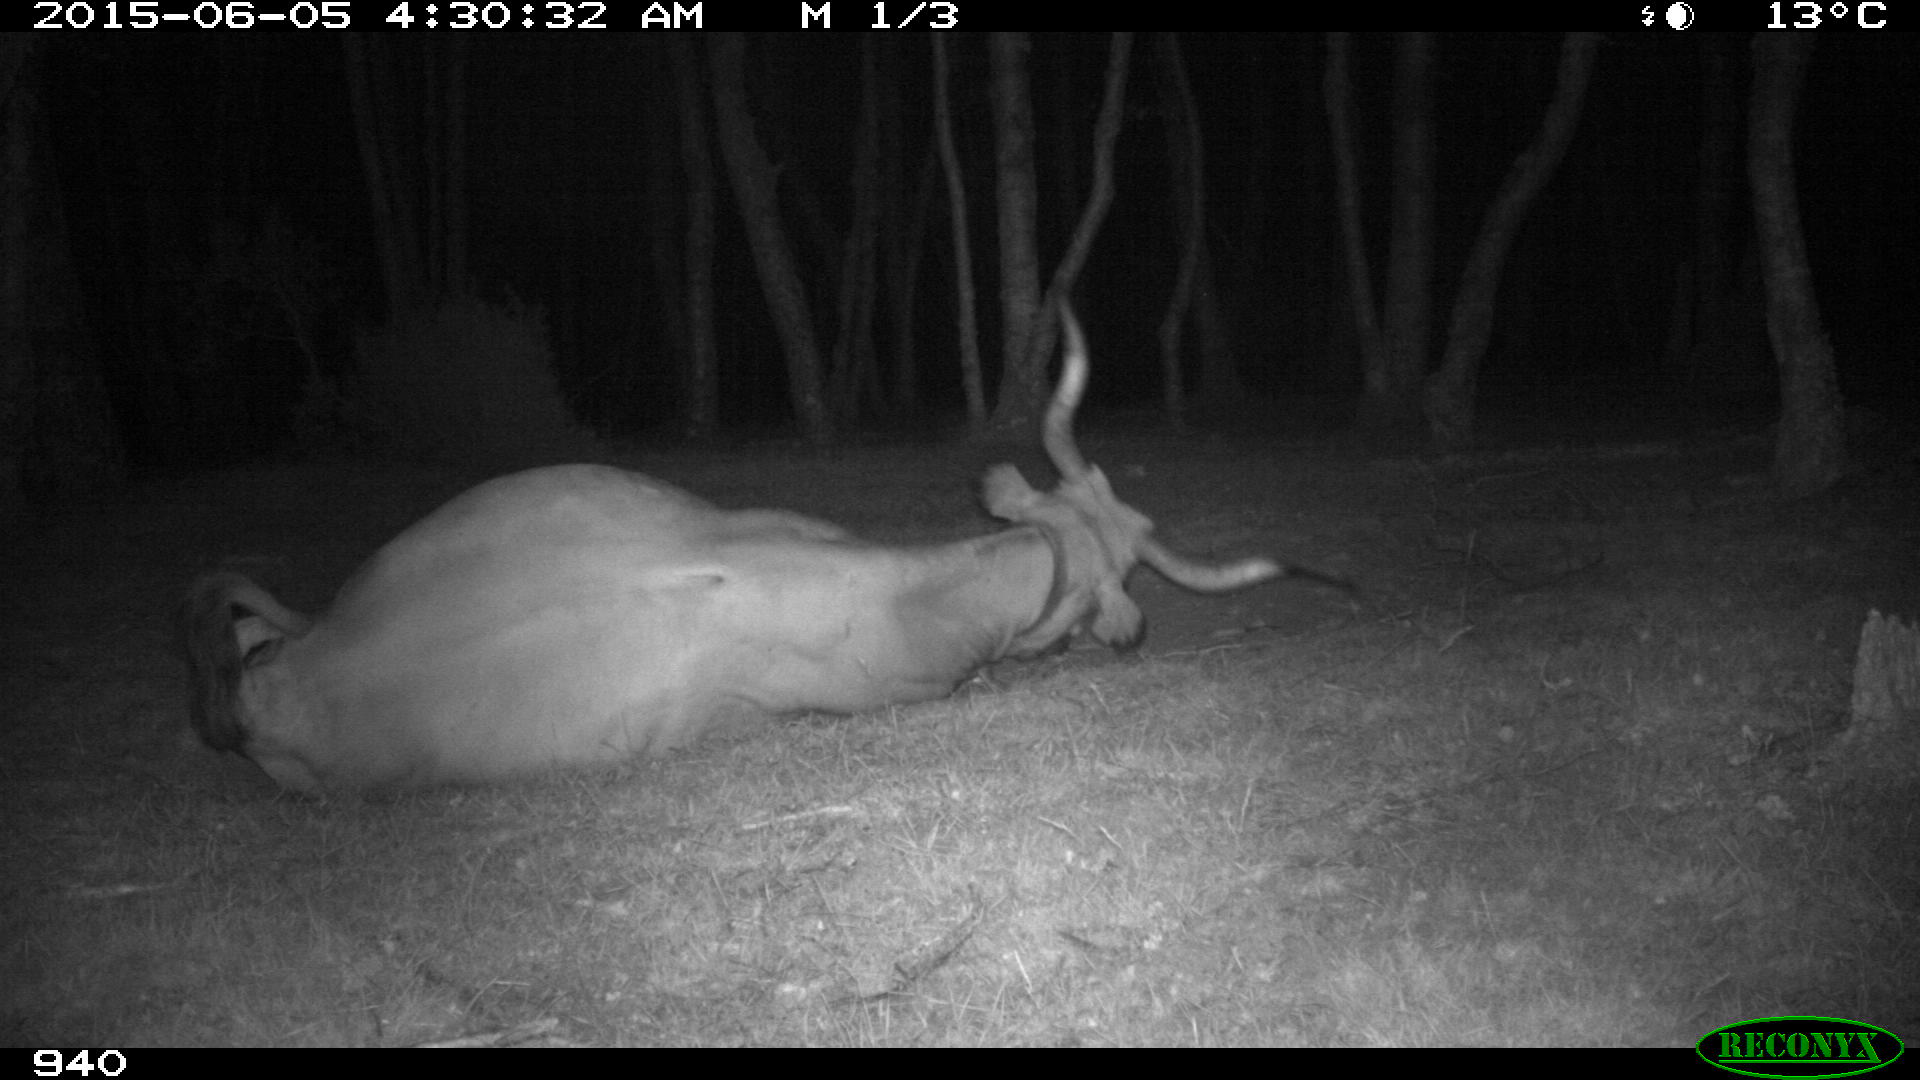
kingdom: Animalia
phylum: Chordata
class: Mammalia
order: Artiodactyla
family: Bovidae
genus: Bos
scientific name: Bos taurus
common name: Domesticated cattle
